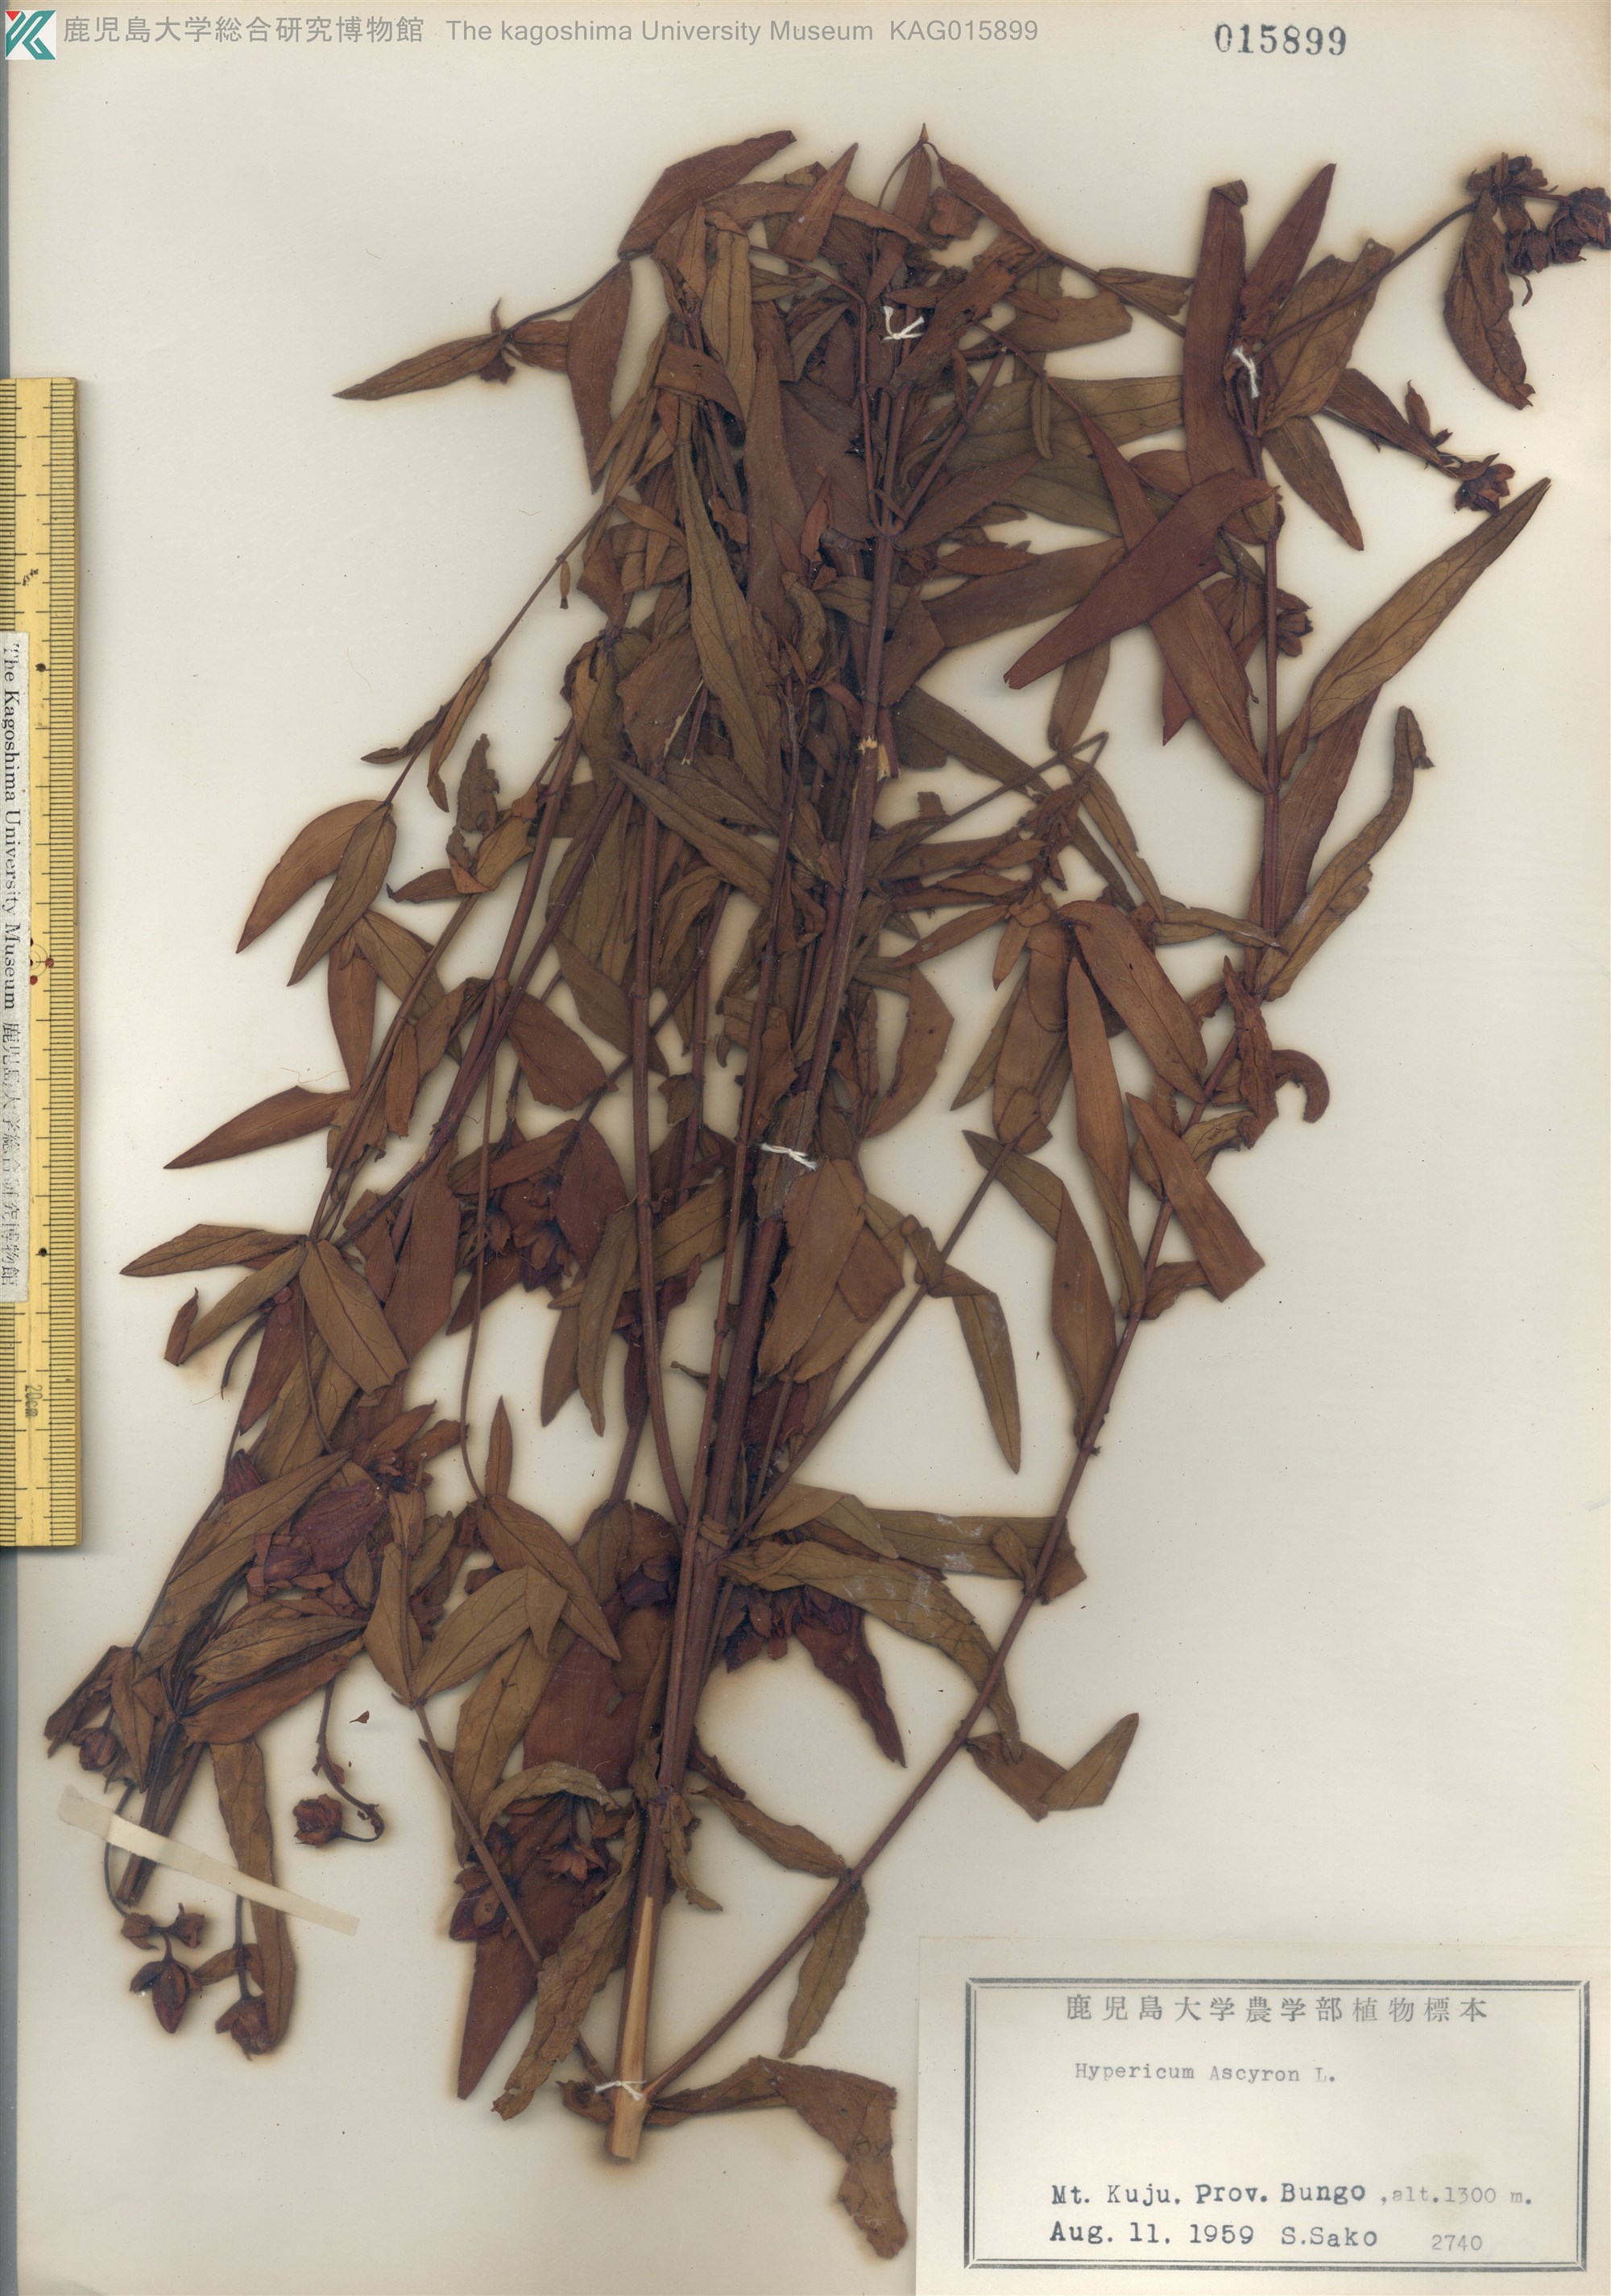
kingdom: Plantae
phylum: Tracheophyta
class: Magnoliopsida
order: Malpighiales
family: Hypericaceae
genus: Hypericum
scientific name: Hypericum ascyron
